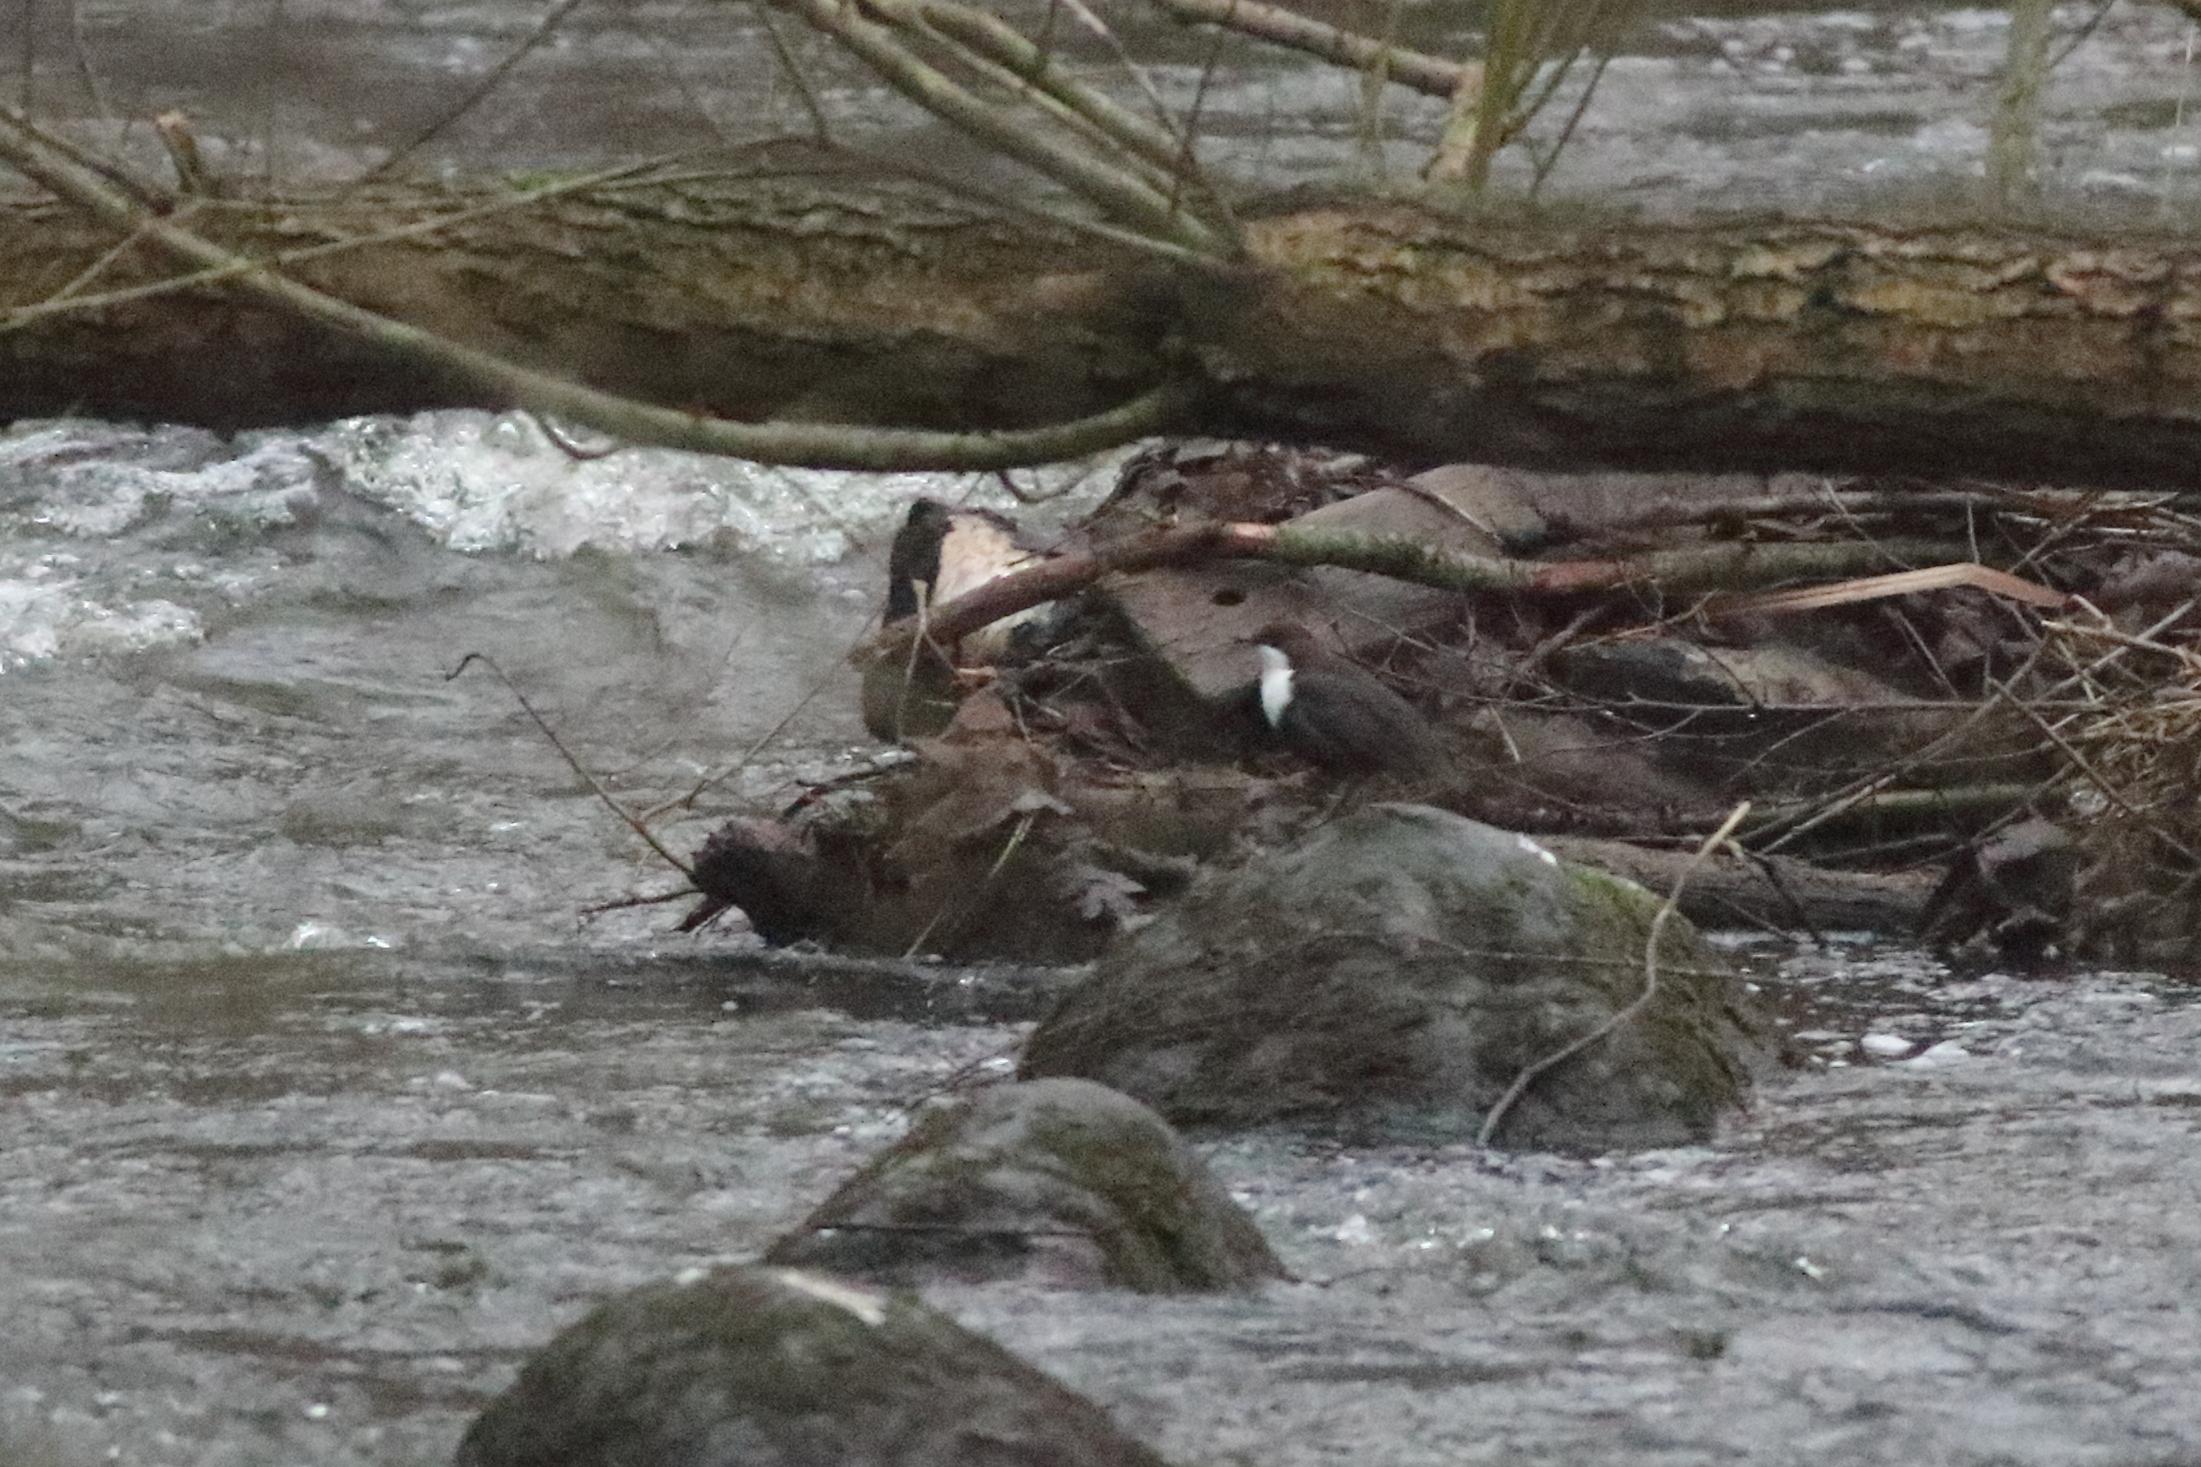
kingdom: Animalia
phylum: Chordata
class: Aves
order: Passeriformes
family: Cinclidae
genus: Cinclus
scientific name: Cinclus cinclus
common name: Vandstær
